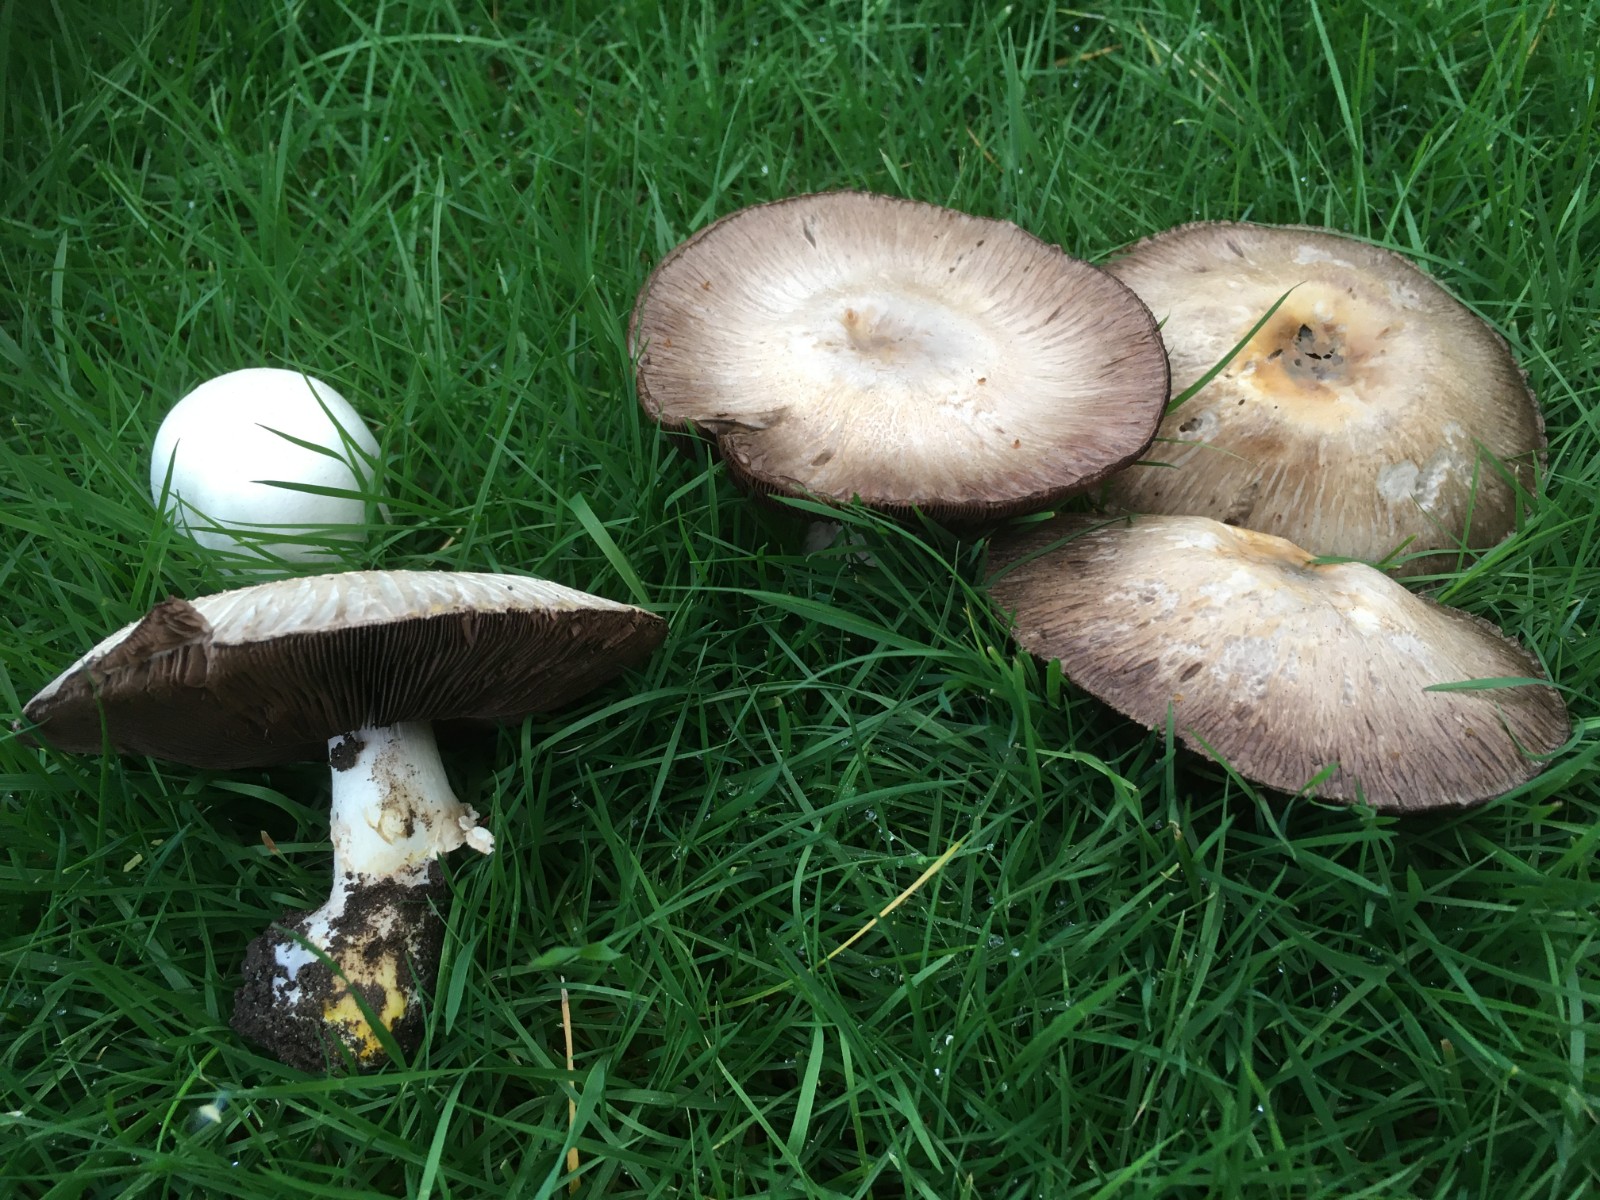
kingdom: Fungi
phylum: Basidiomycota
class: Agaricomycetes
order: Agaricales
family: Agaricaceae
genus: Agaricus
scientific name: Agaricus xanthodermus
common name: karbol-champignon
